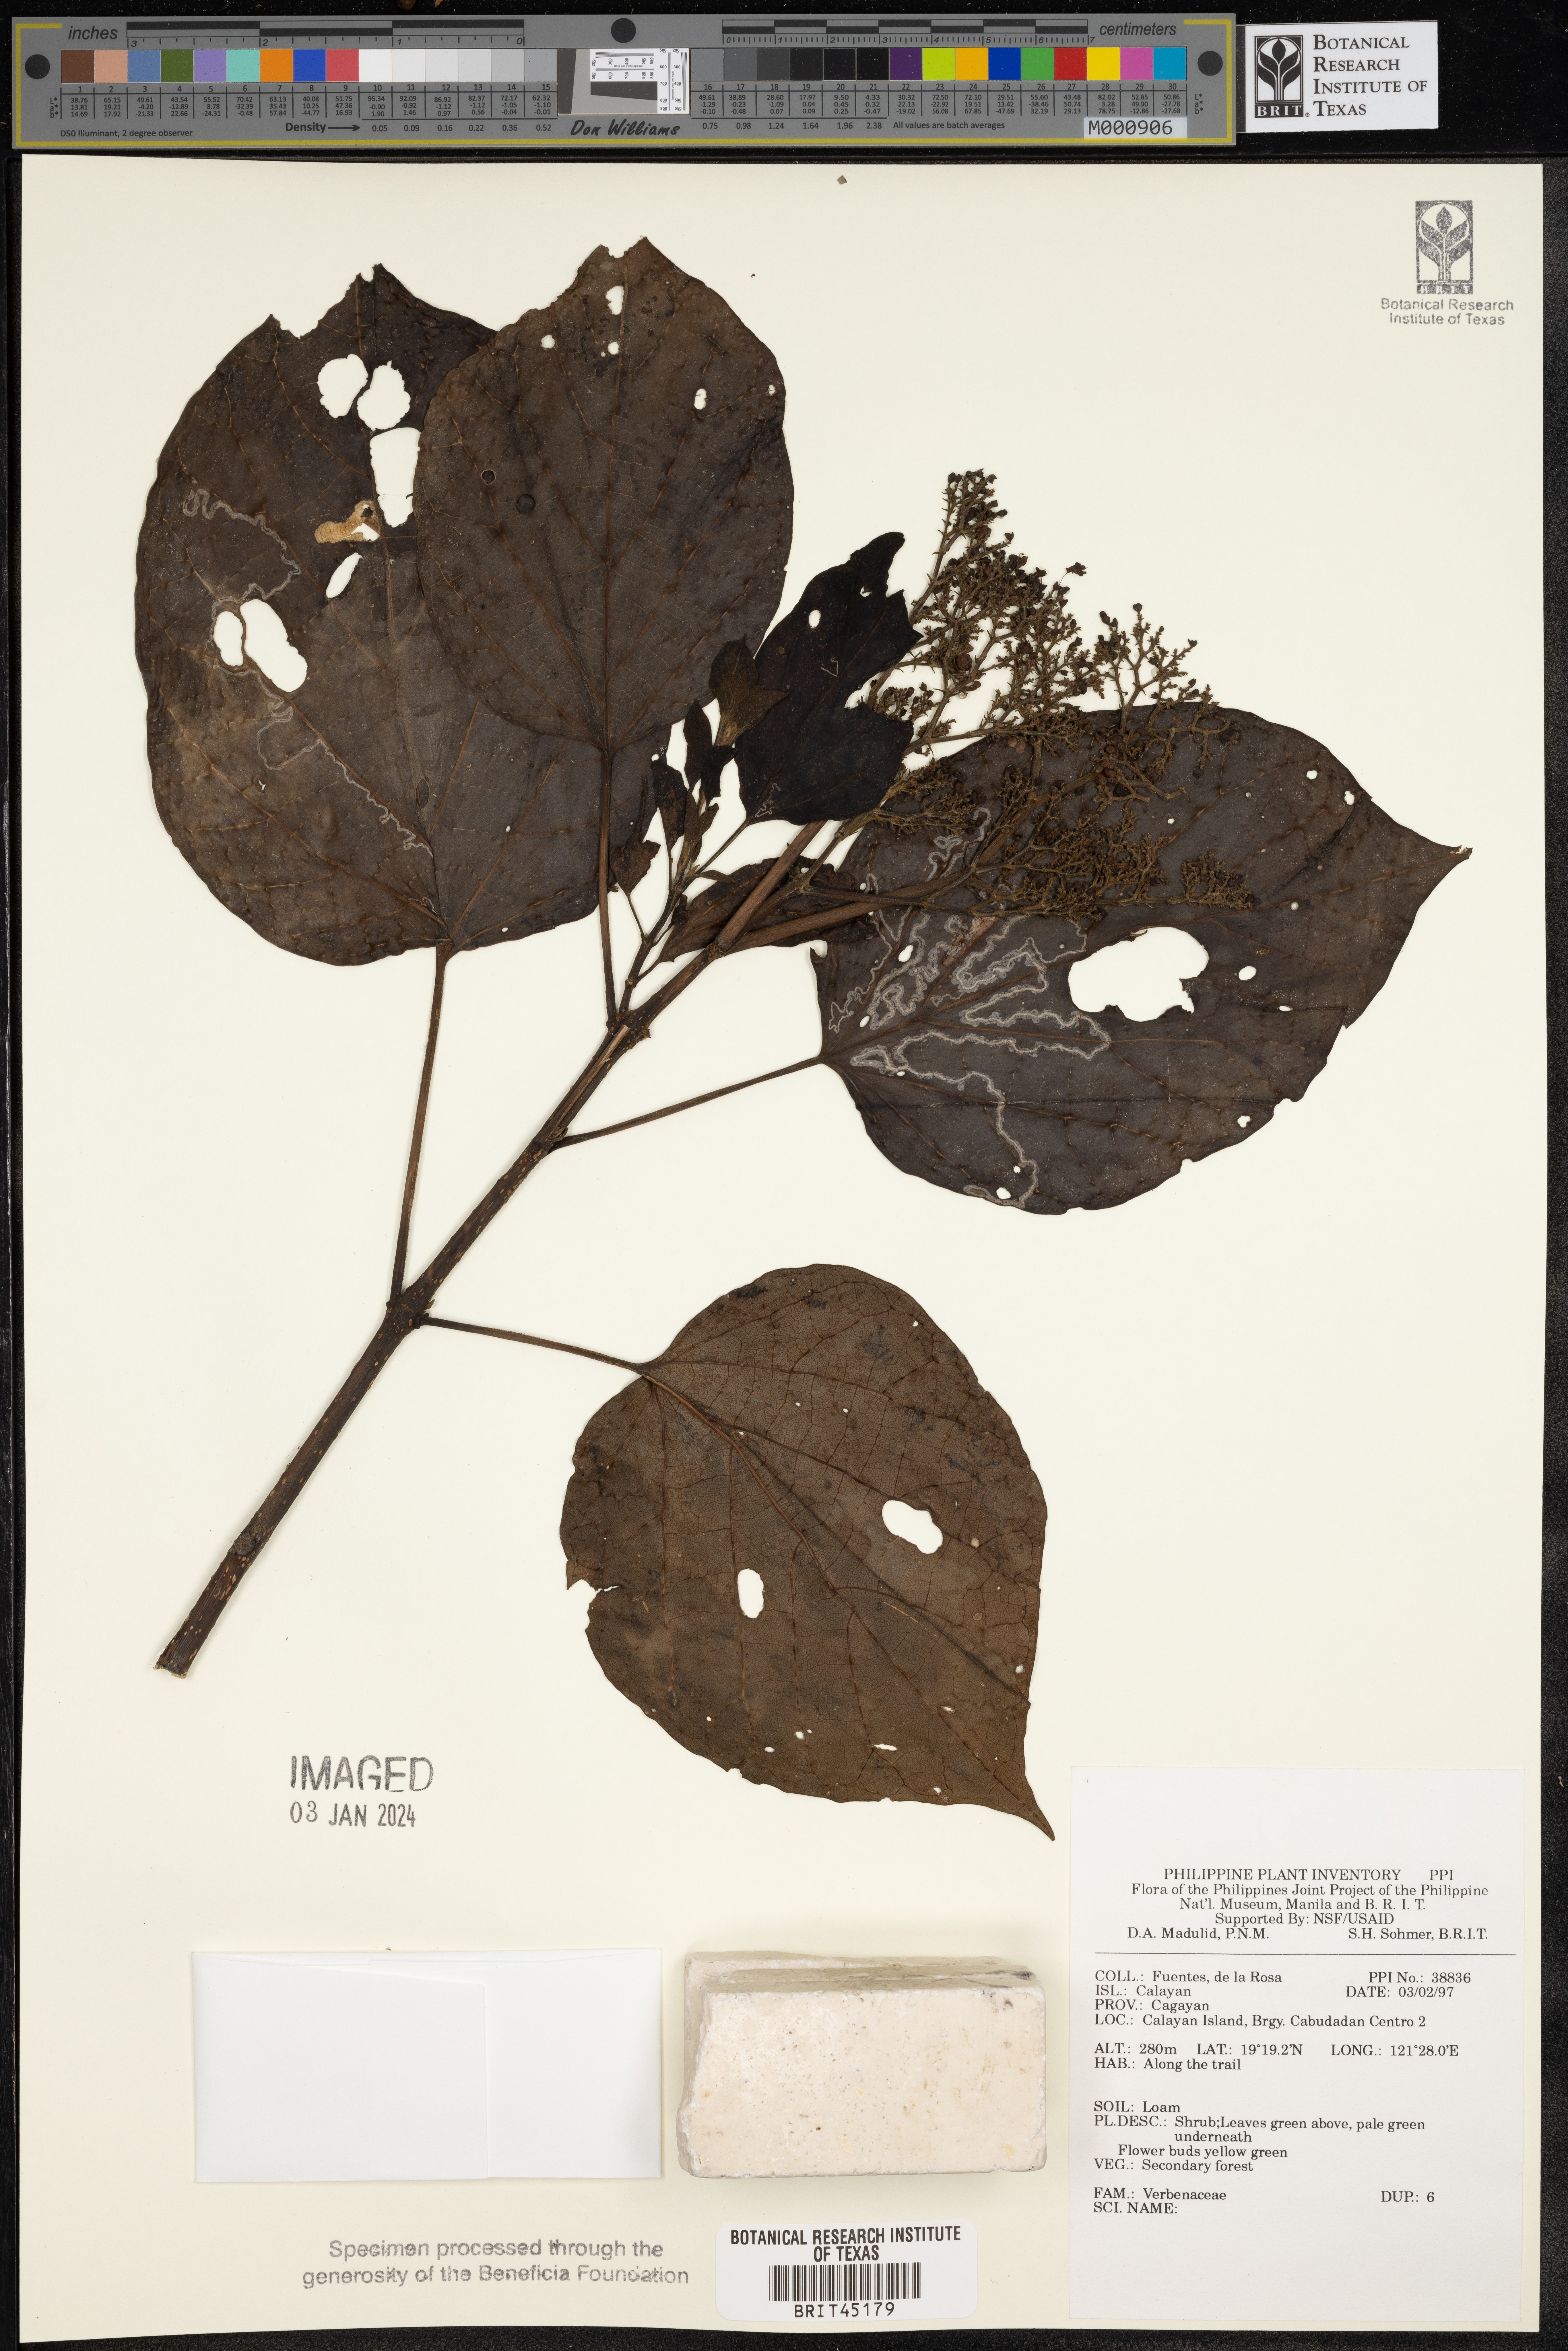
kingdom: Plantae
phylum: Tracheophyta
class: Magnoliopsida
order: Lamiales
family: Verbenaceae
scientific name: Verbenaceae
